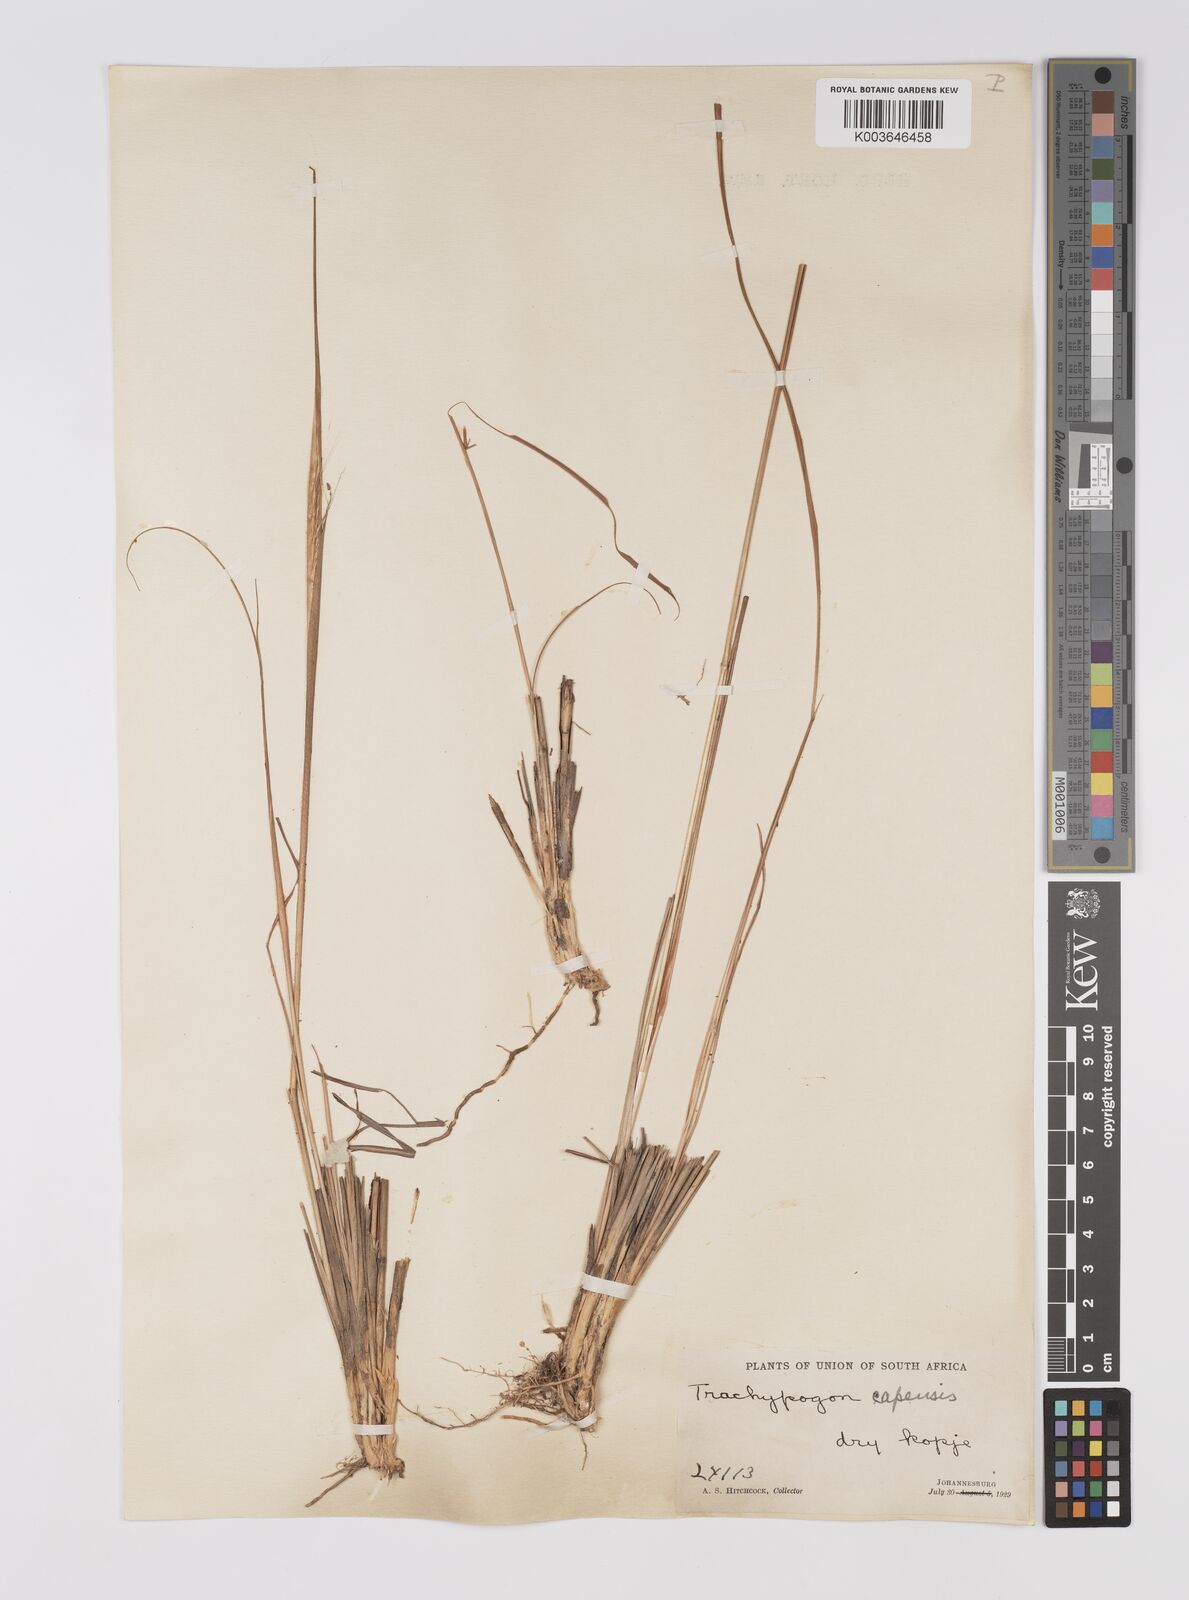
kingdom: Plantae
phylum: Tracheophyta
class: Liliopsida
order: Poales
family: Poaceae
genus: Trachypogon
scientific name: Trachypogon spicatus
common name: Crinkle-awn
